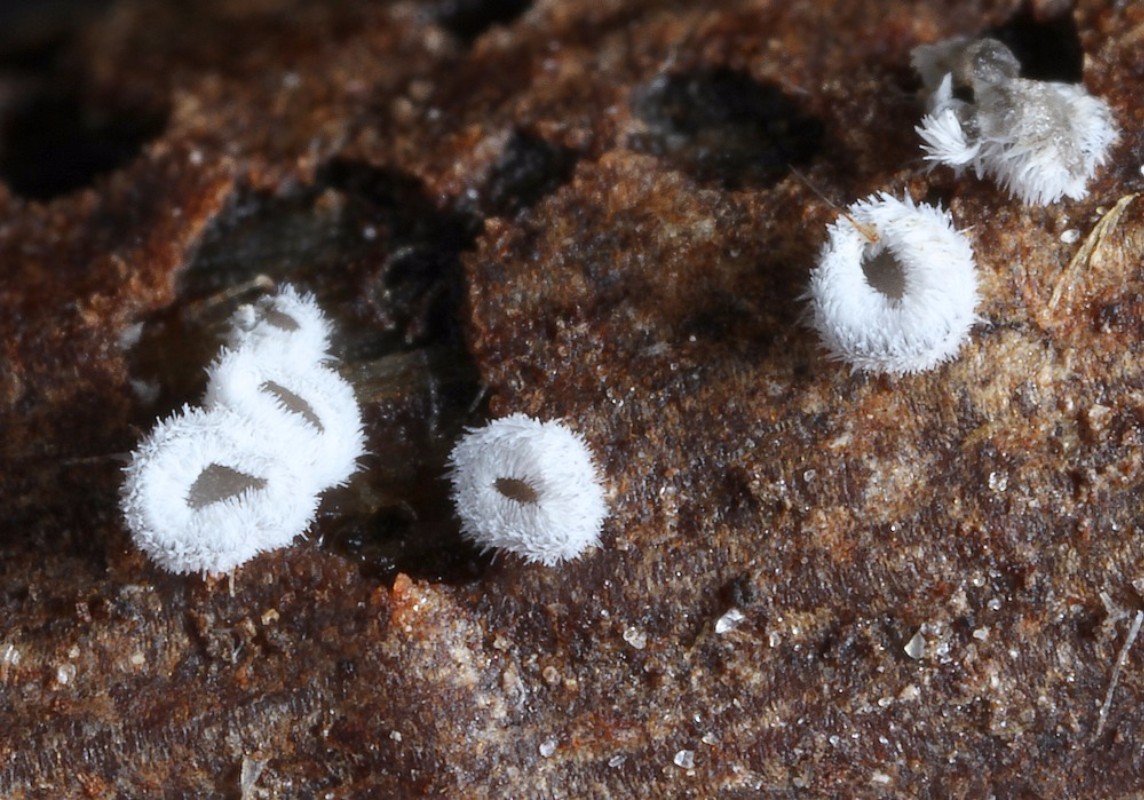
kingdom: Fungi
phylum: Basidiomycota
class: Agaricomycetes
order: Agaricales
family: Niaceae
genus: Lachnella
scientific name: Lachnella alboviolascens
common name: grå frynserede
